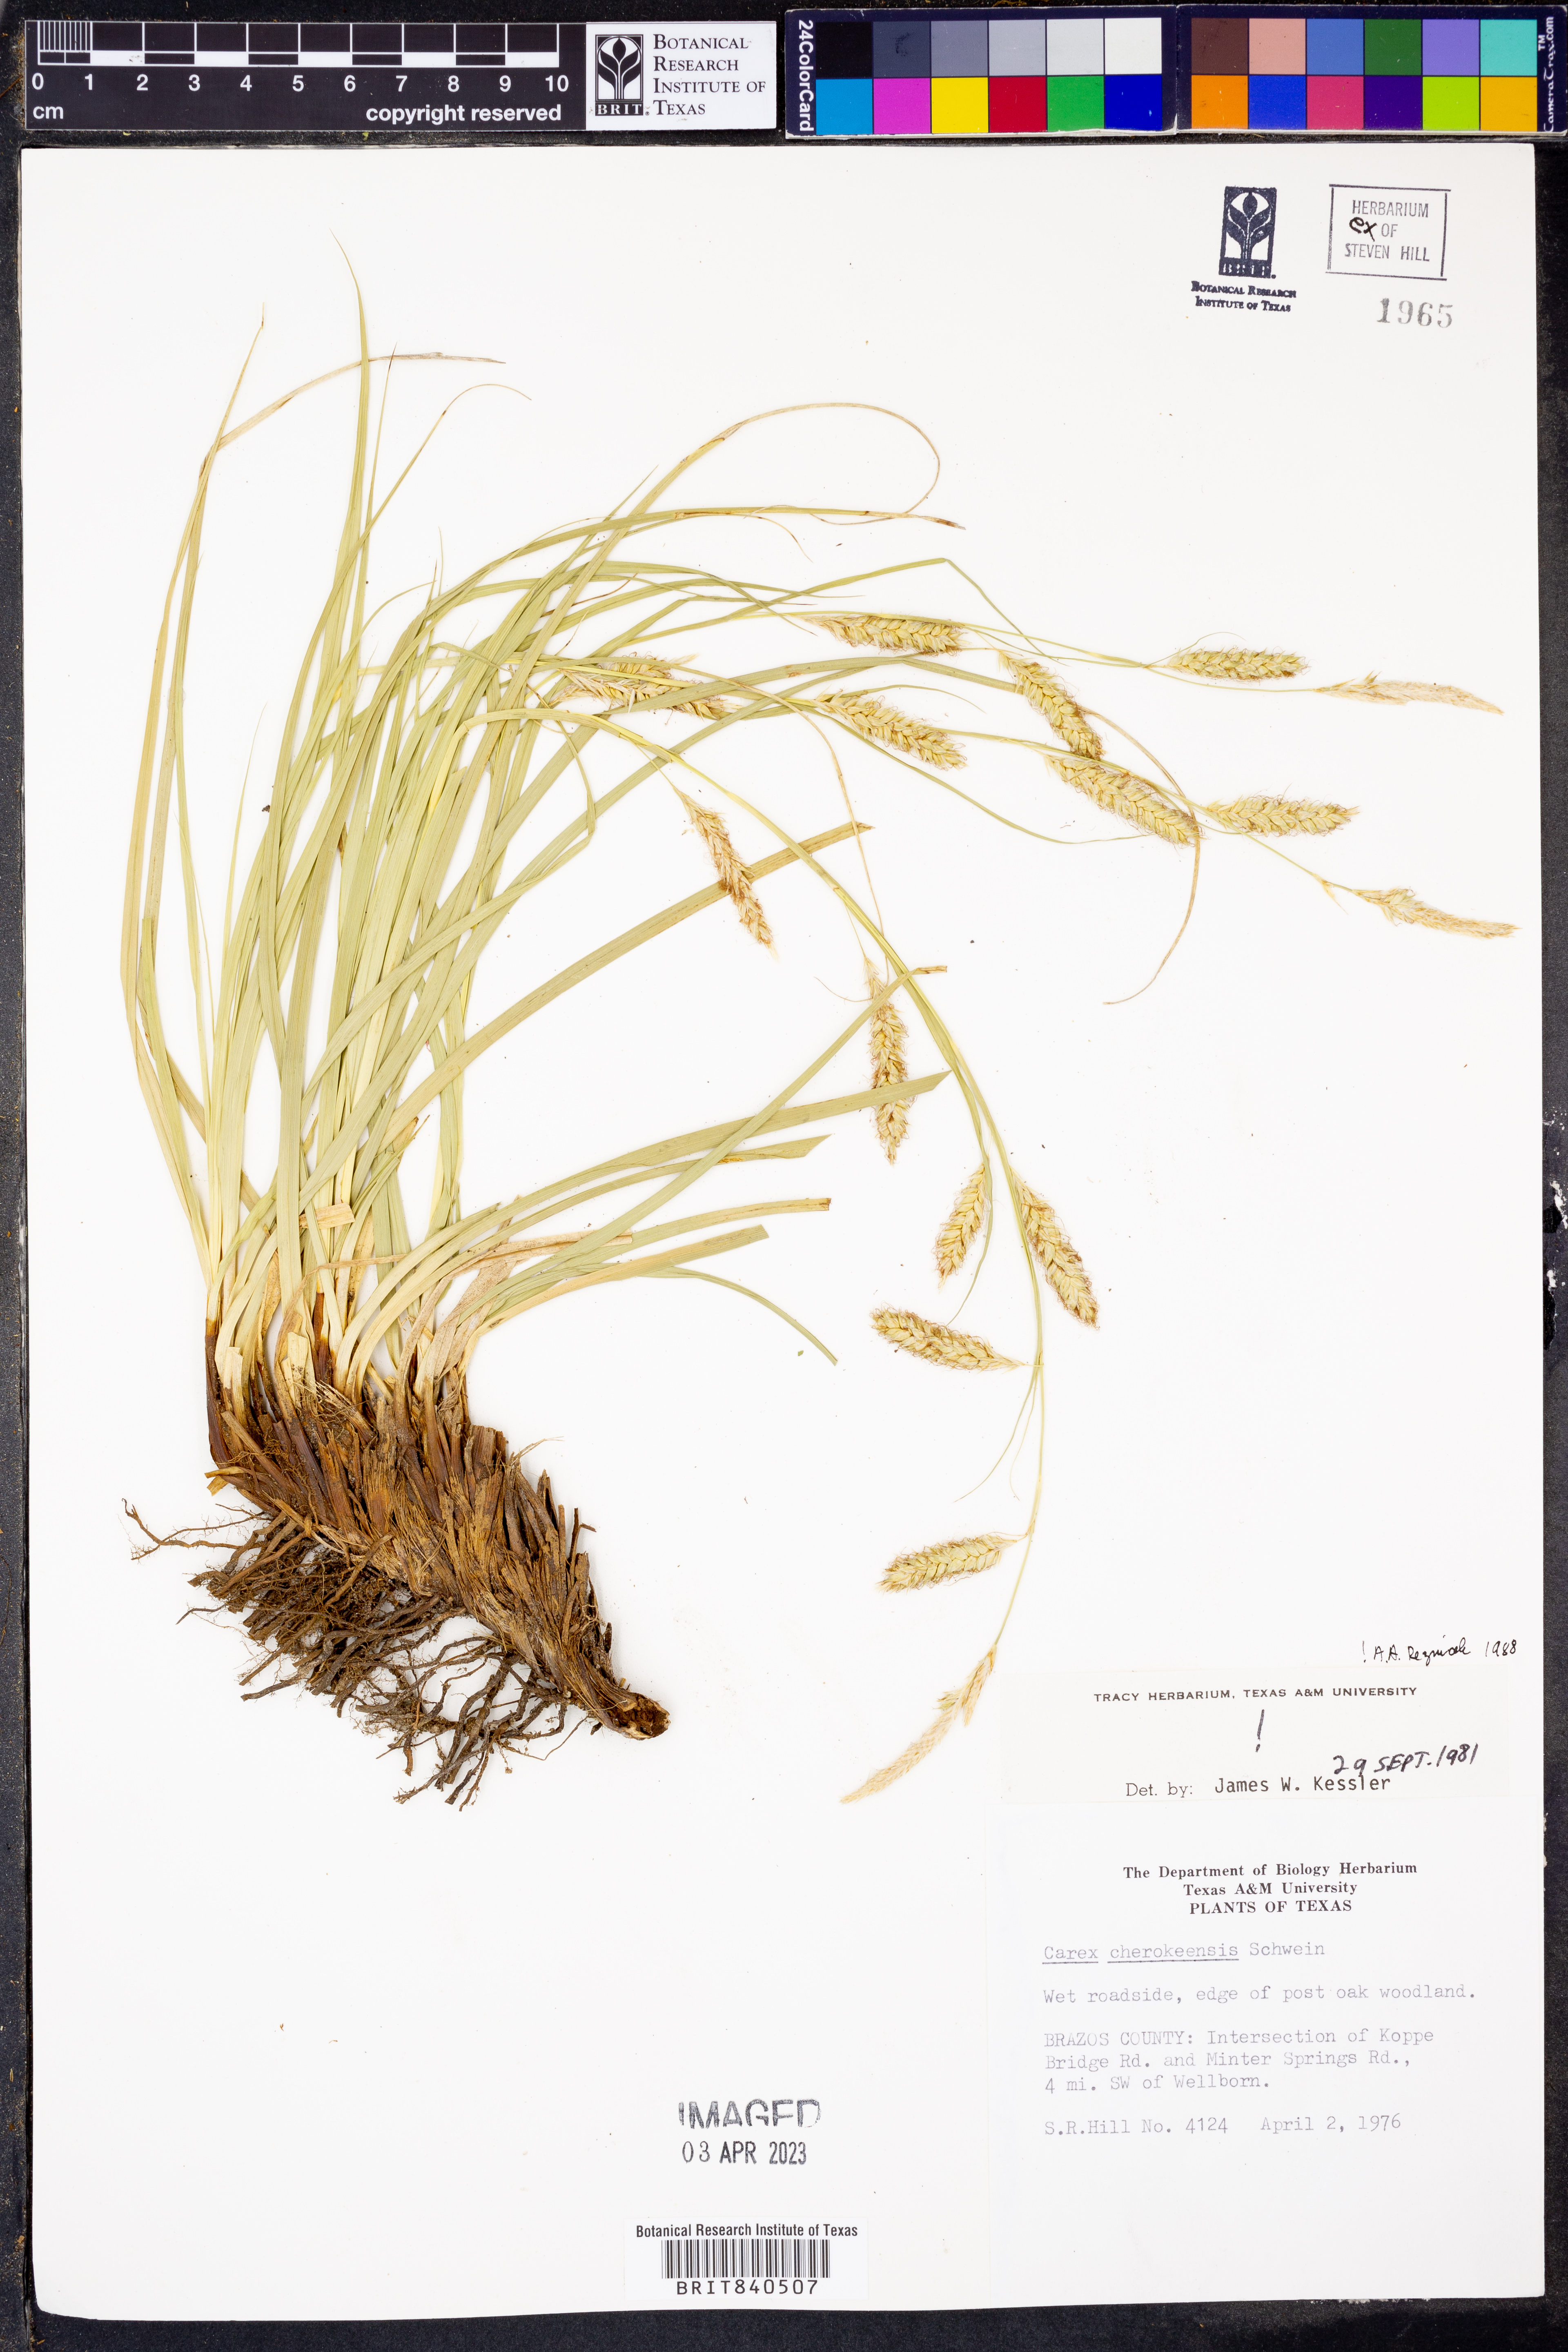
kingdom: Plantae
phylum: Tracheophyta
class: Liliopsida
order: Poales
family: Cyperaceae
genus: Carex
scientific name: Carex cherokeensis
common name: Cherokee sedge
